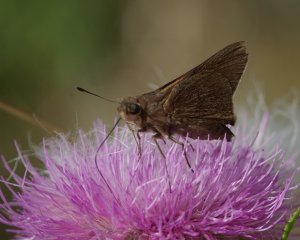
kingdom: Animalia
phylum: Arthropoda
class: Insecta
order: Lepidoptera
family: Hesperiidae
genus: Asbolis
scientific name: Asbolis capucinus
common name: Monk Skipper
